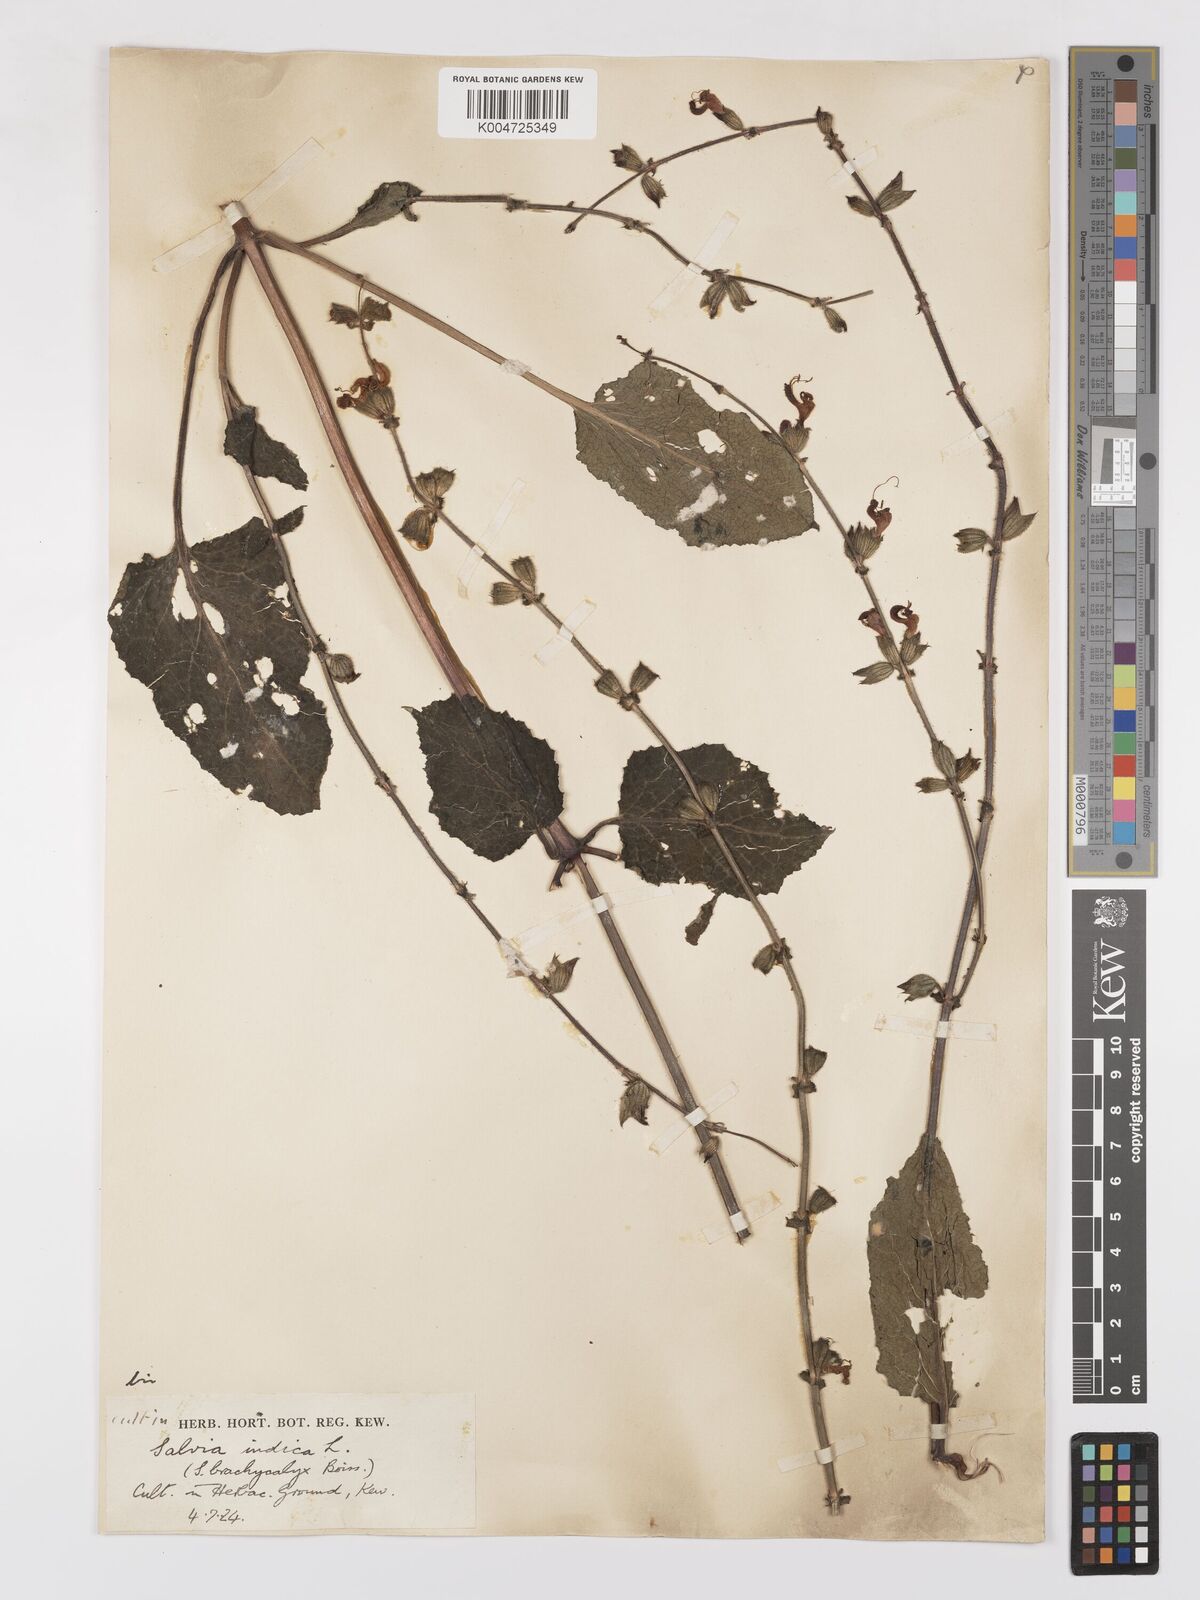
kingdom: Plantae
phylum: Tracheophyta
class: Magnoliopsida
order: Lamiales
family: Lamiaceae
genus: Salvia
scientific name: Salvia indica
